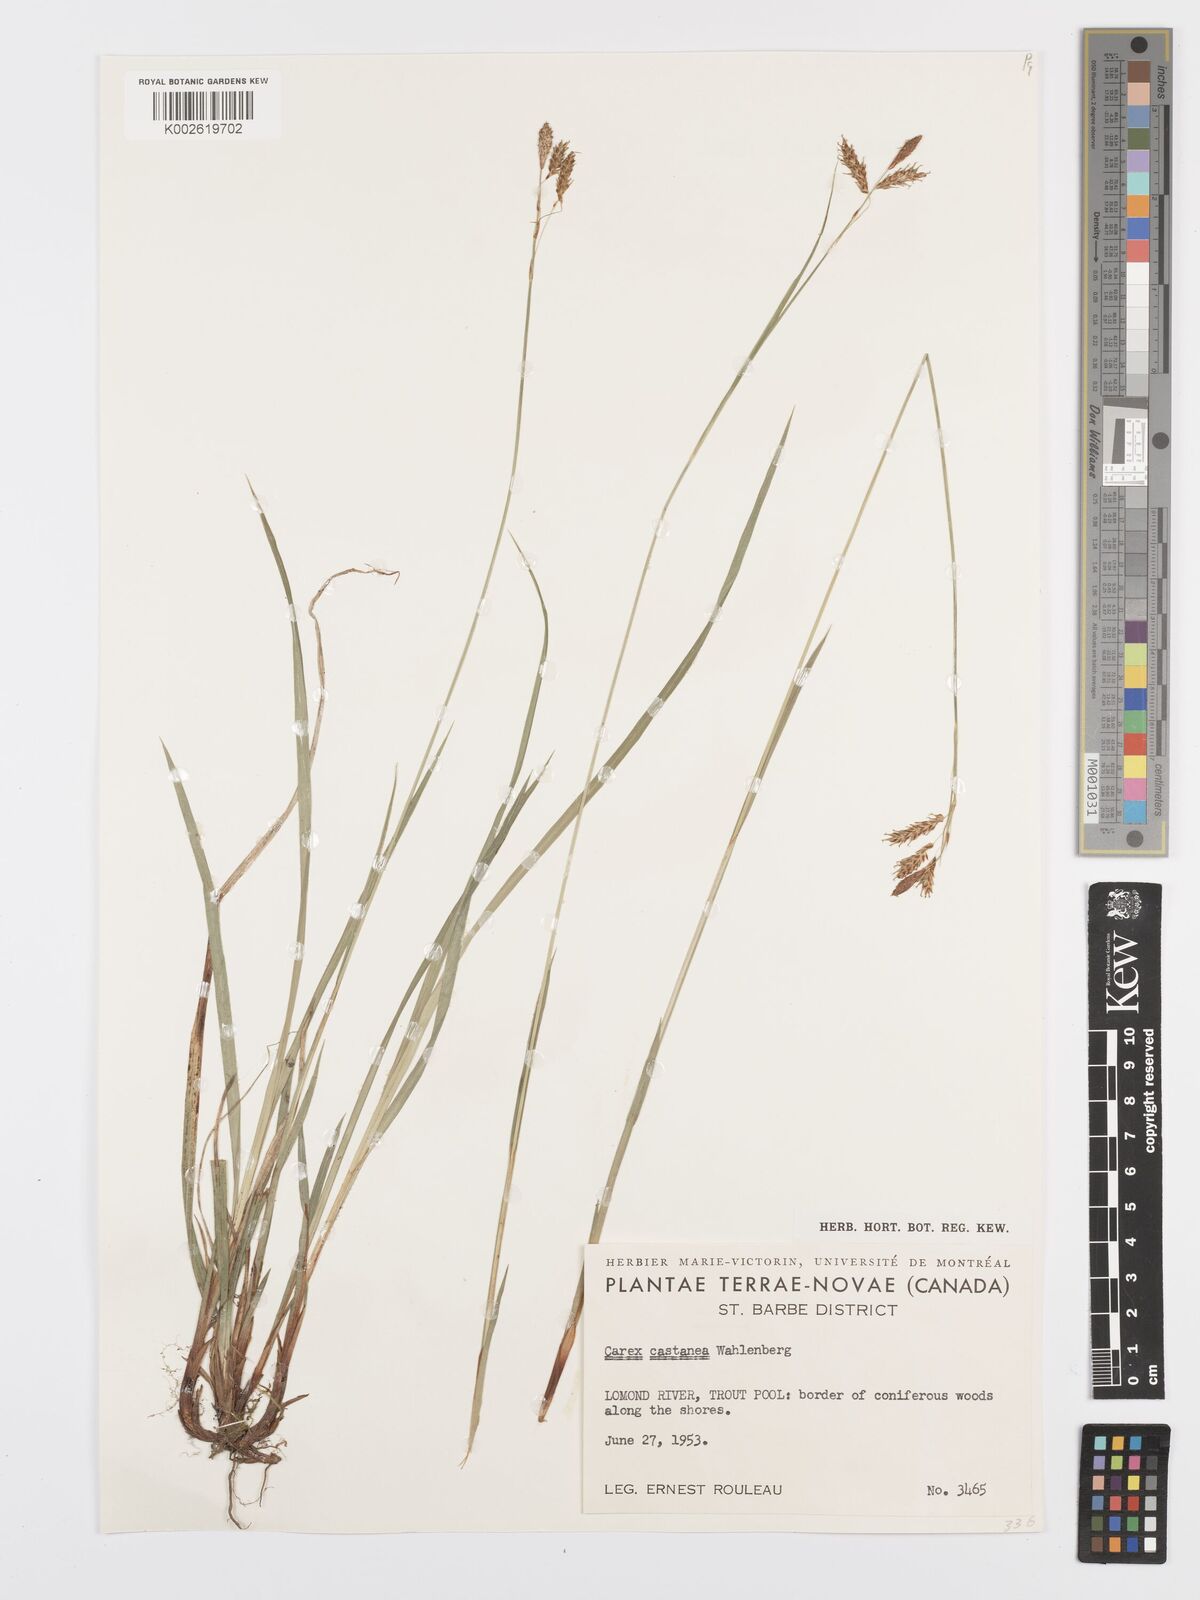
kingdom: Plantae
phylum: Tracheophyta
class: Liliopsida
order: Poales
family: Cyperaceae
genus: Carex
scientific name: Carex castanea
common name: Chestnut sedge
